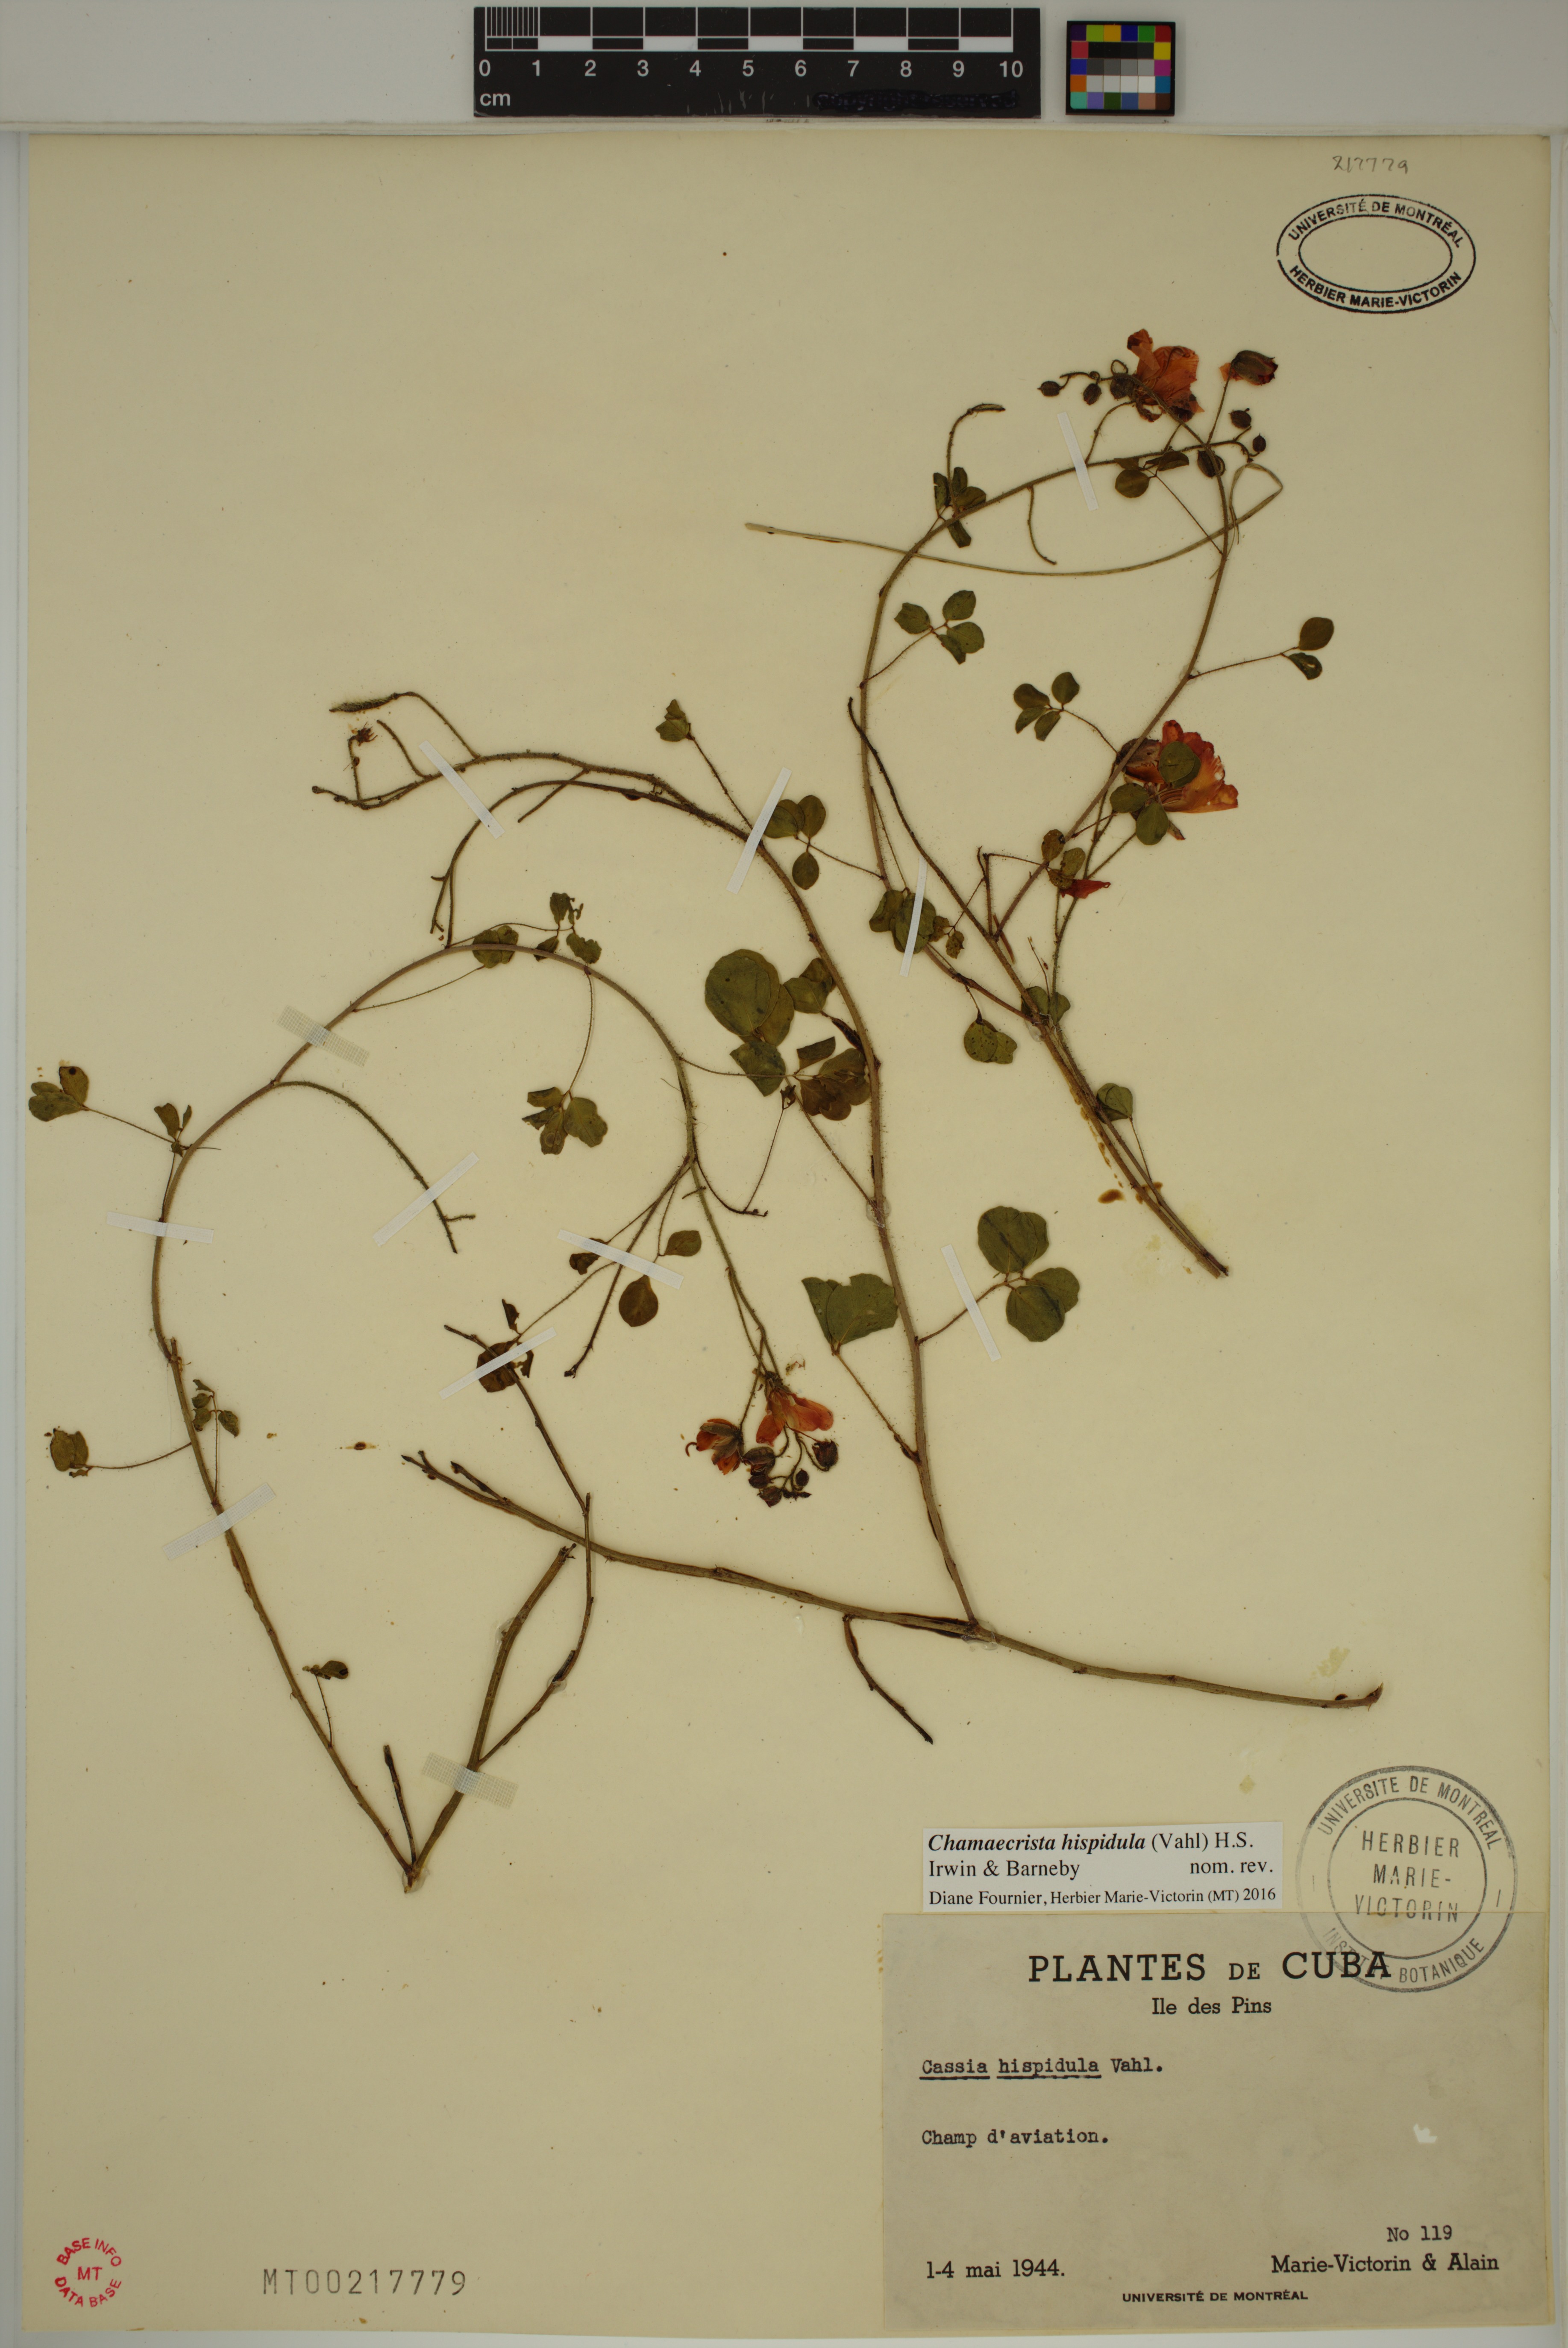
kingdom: Plantae
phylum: Tracheophyta
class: Magnoliopsida
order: Fabales
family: Fabaceae
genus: Chamaecrista
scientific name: Chamaecrista hispidula
